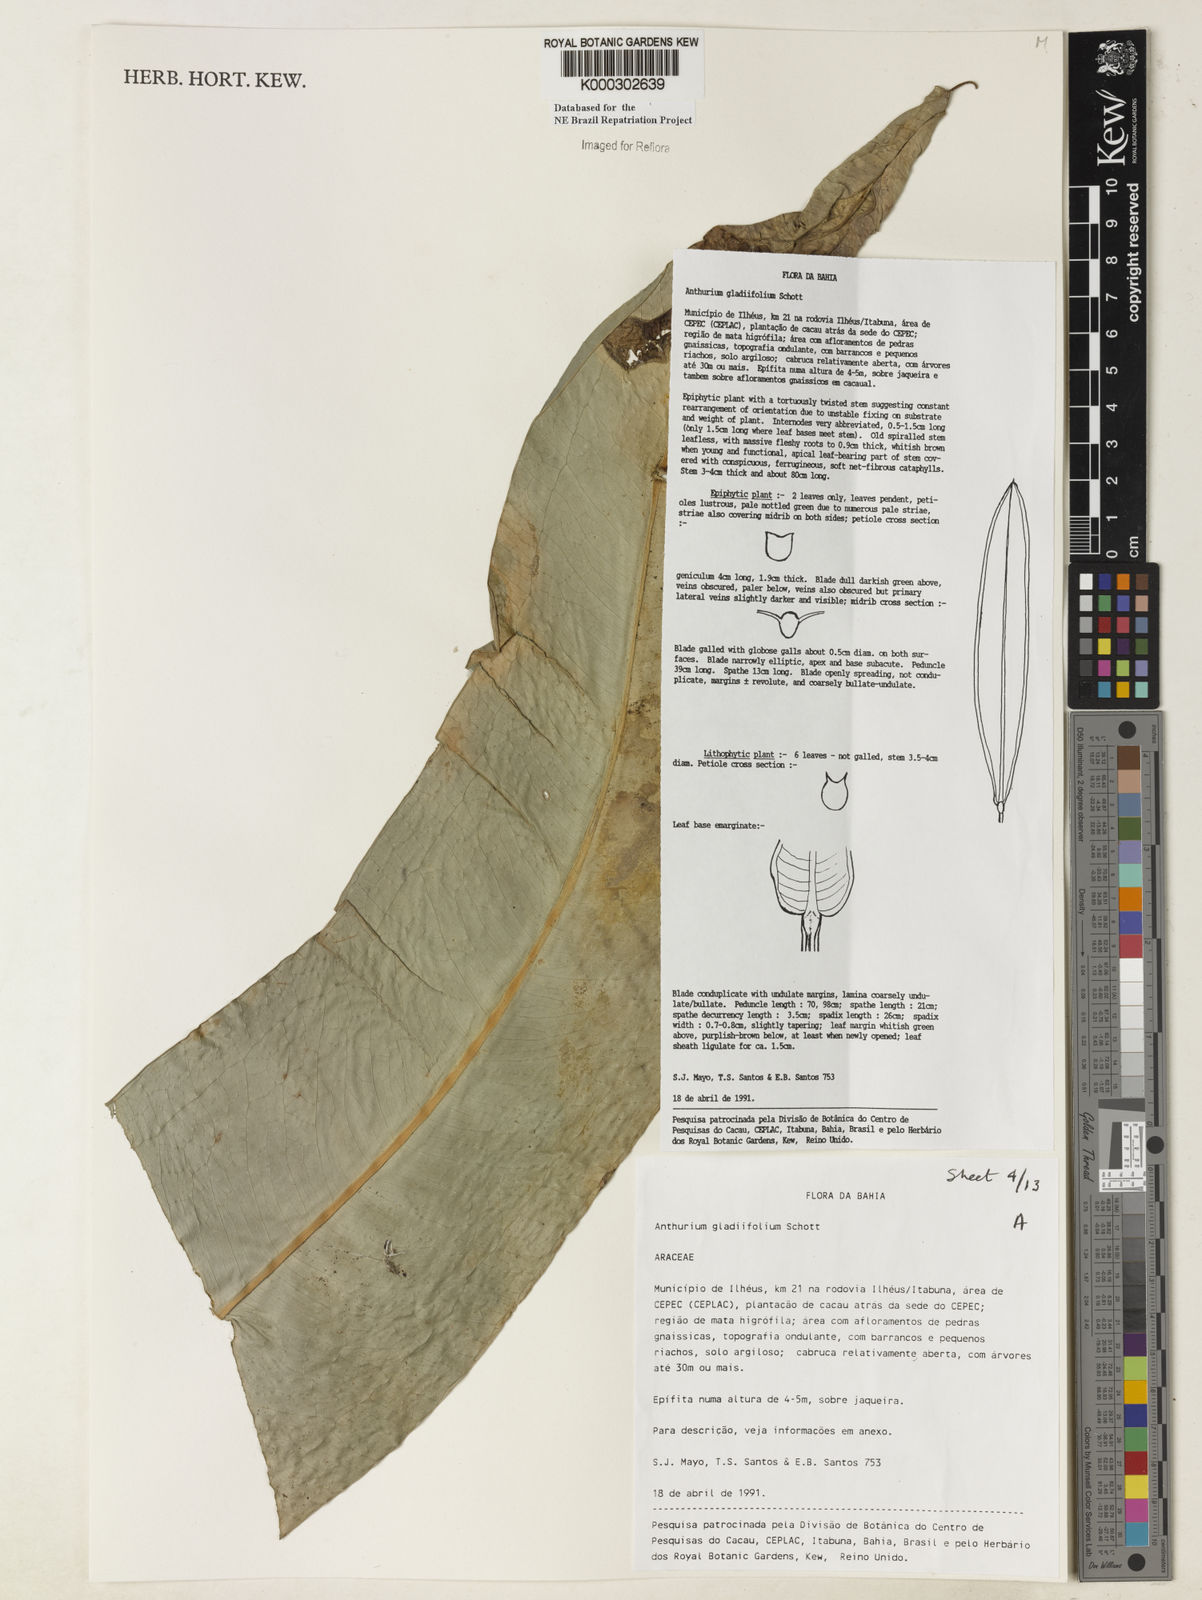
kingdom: Plantae
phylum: Tracheophyta
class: Liliopsida
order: Alismatales
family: Araceae
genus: Anthurium
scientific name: Anthurium gladiifolium
